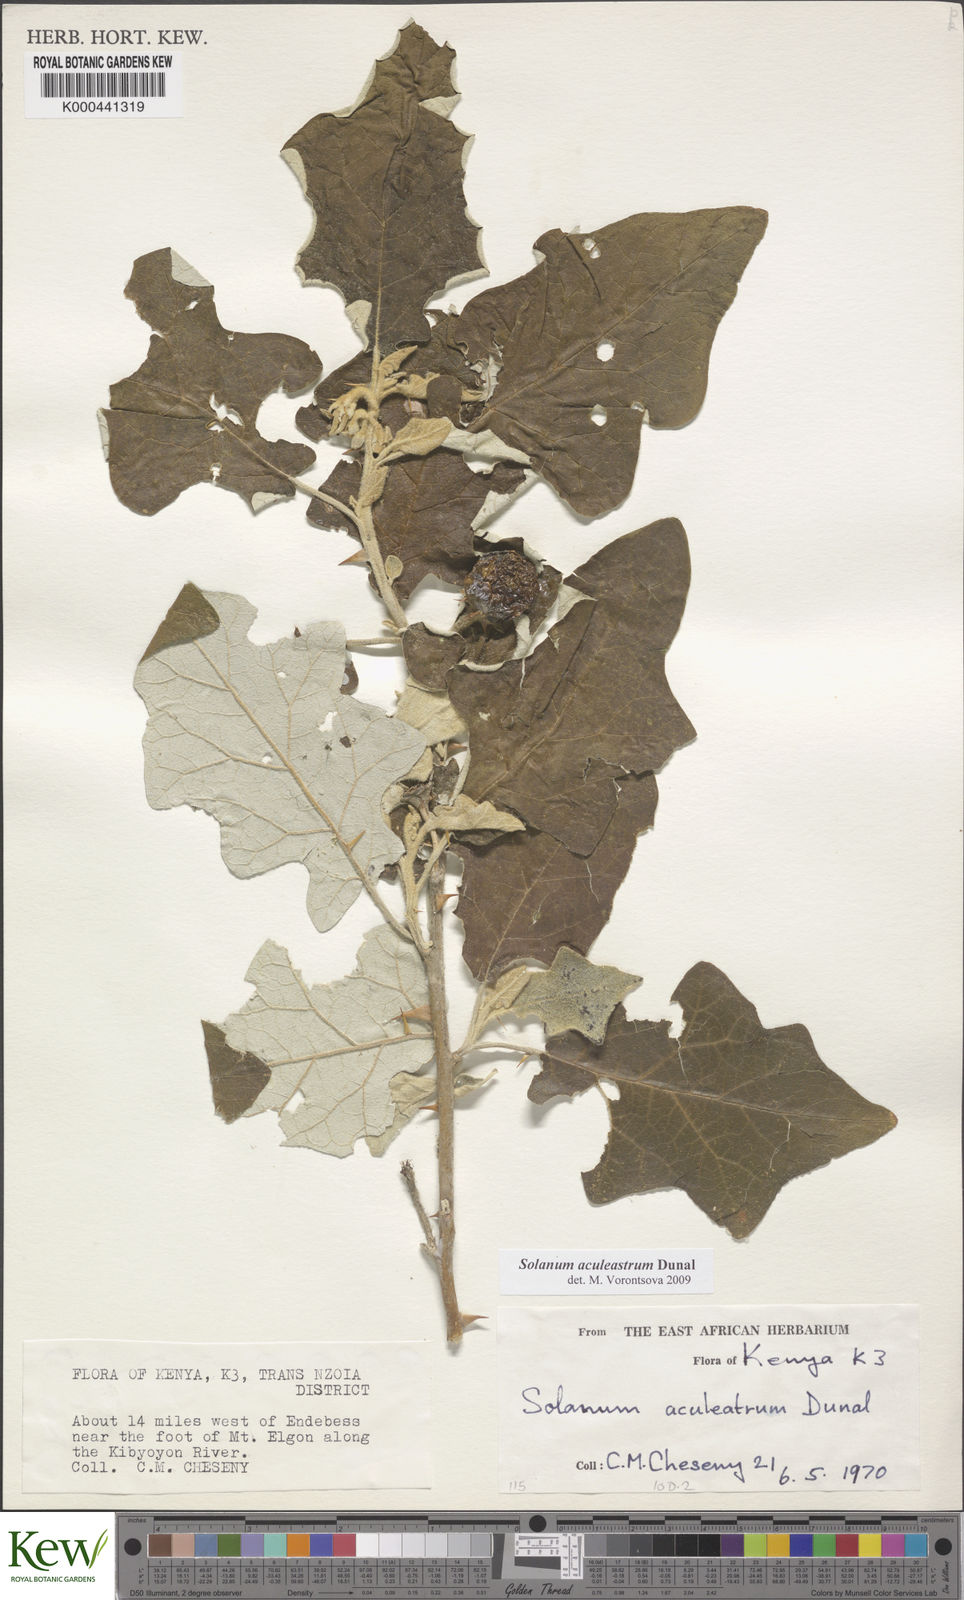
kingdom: Plantae
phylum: Tracheophyta
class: Magnoliopsida
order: Solanales
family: Solanaceae
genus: Solanum
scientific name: Solanum aculeastrum
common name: Goat bitter-apple
